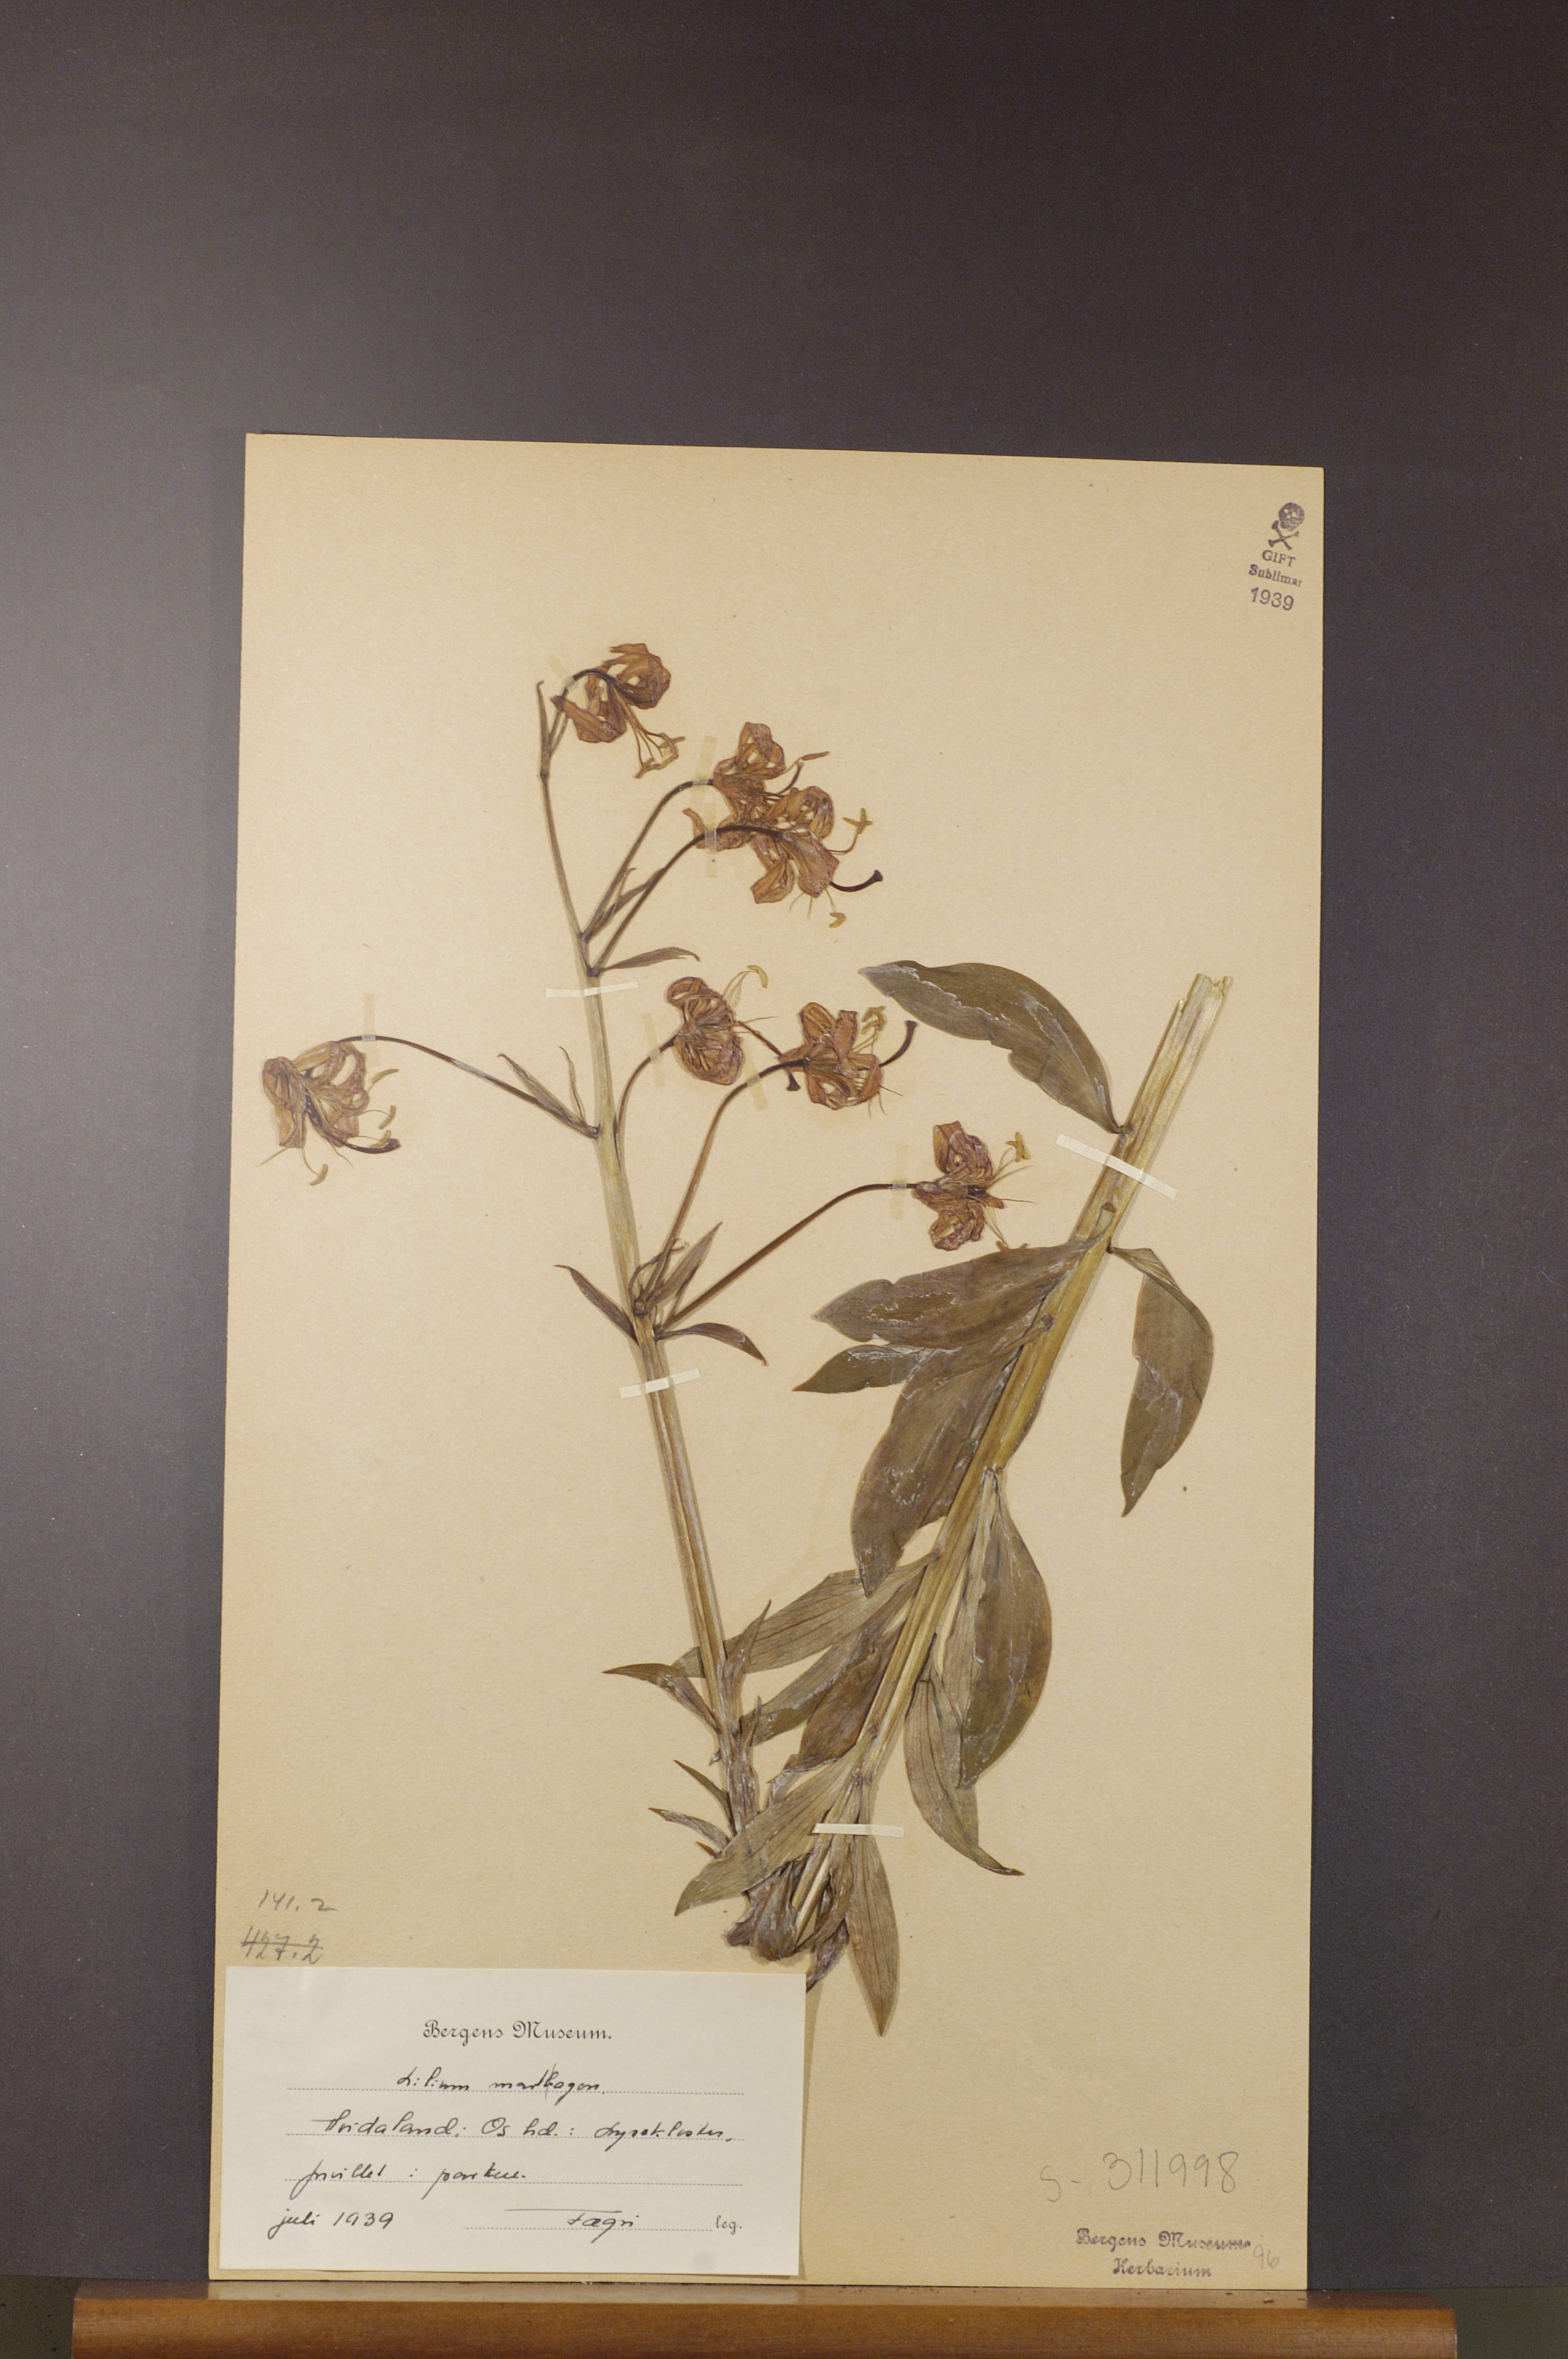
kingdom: Plantae
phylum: Tracheophyta
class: Liliopsida
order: Liliales
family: Liliaceae
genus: Lilium
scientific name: Lilium martagon
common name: Martagon lily
